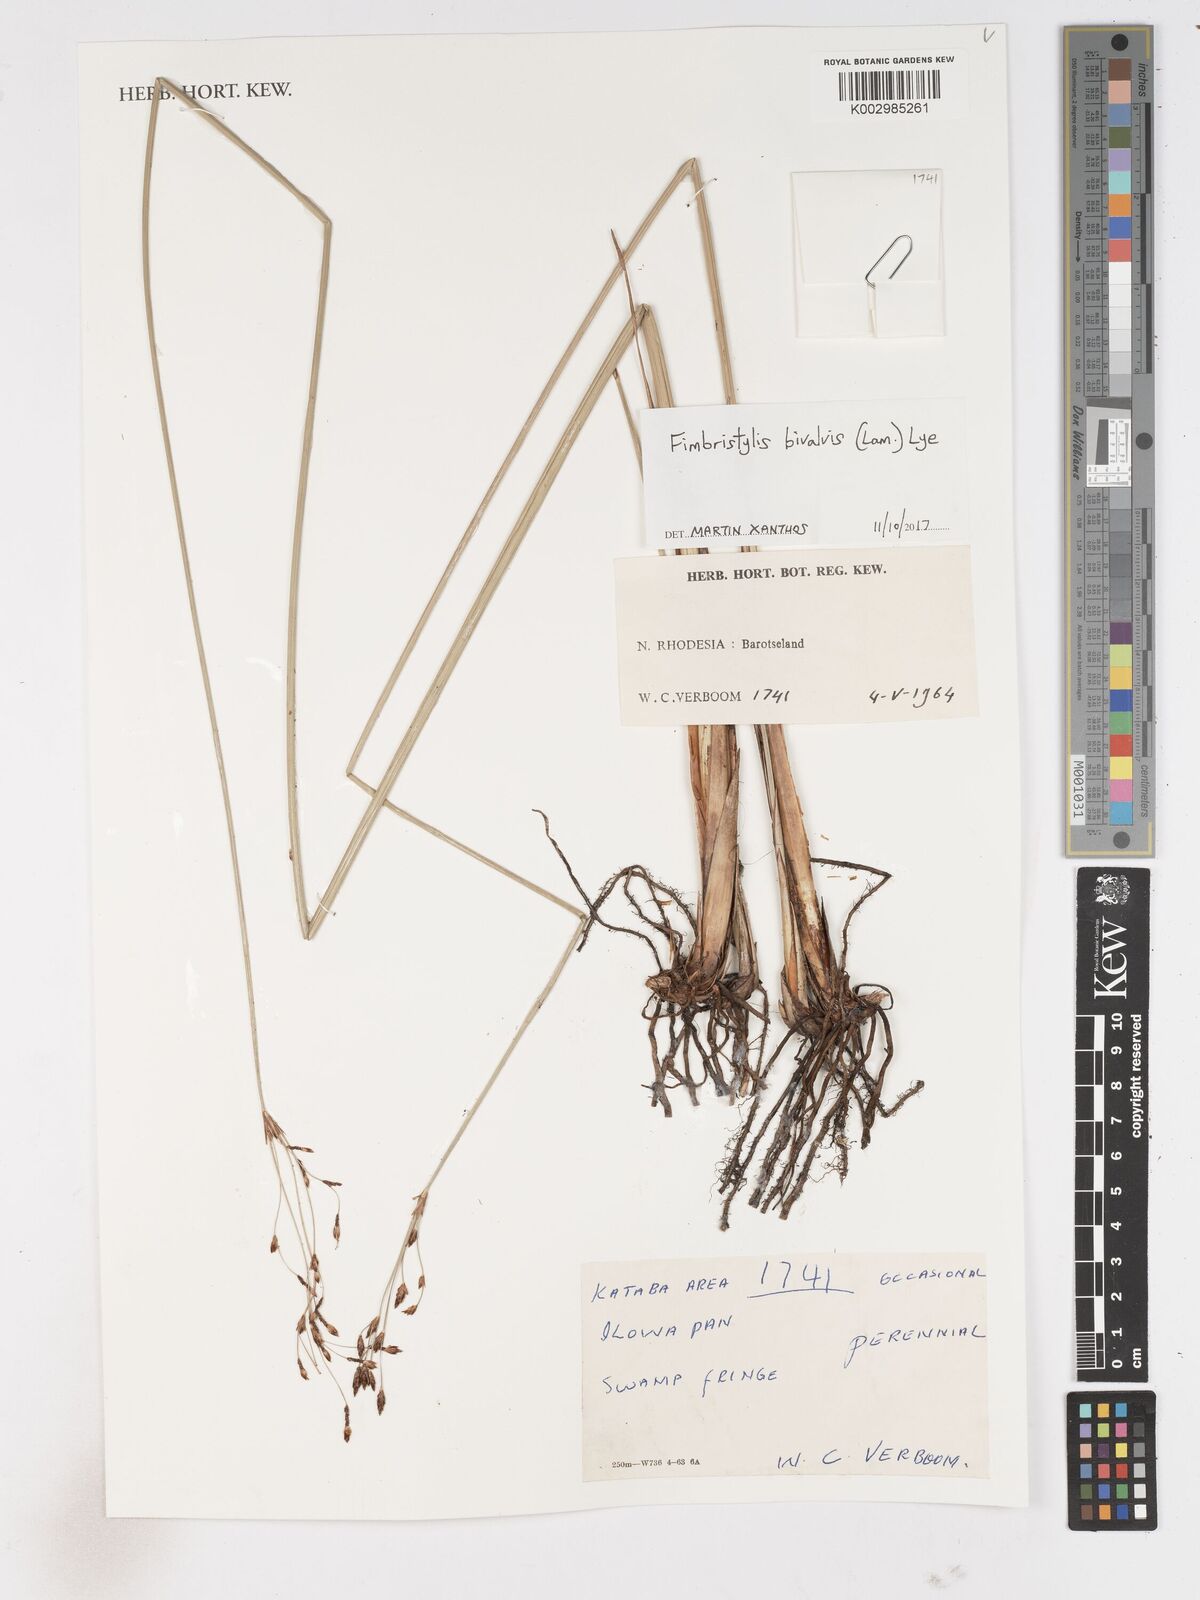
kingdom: Plantae
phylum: Tracheophyta
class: Liliopsida
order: Poales
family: Cyperaceae
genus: Fimbristylis
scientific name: Fimbristylis bivalvis
